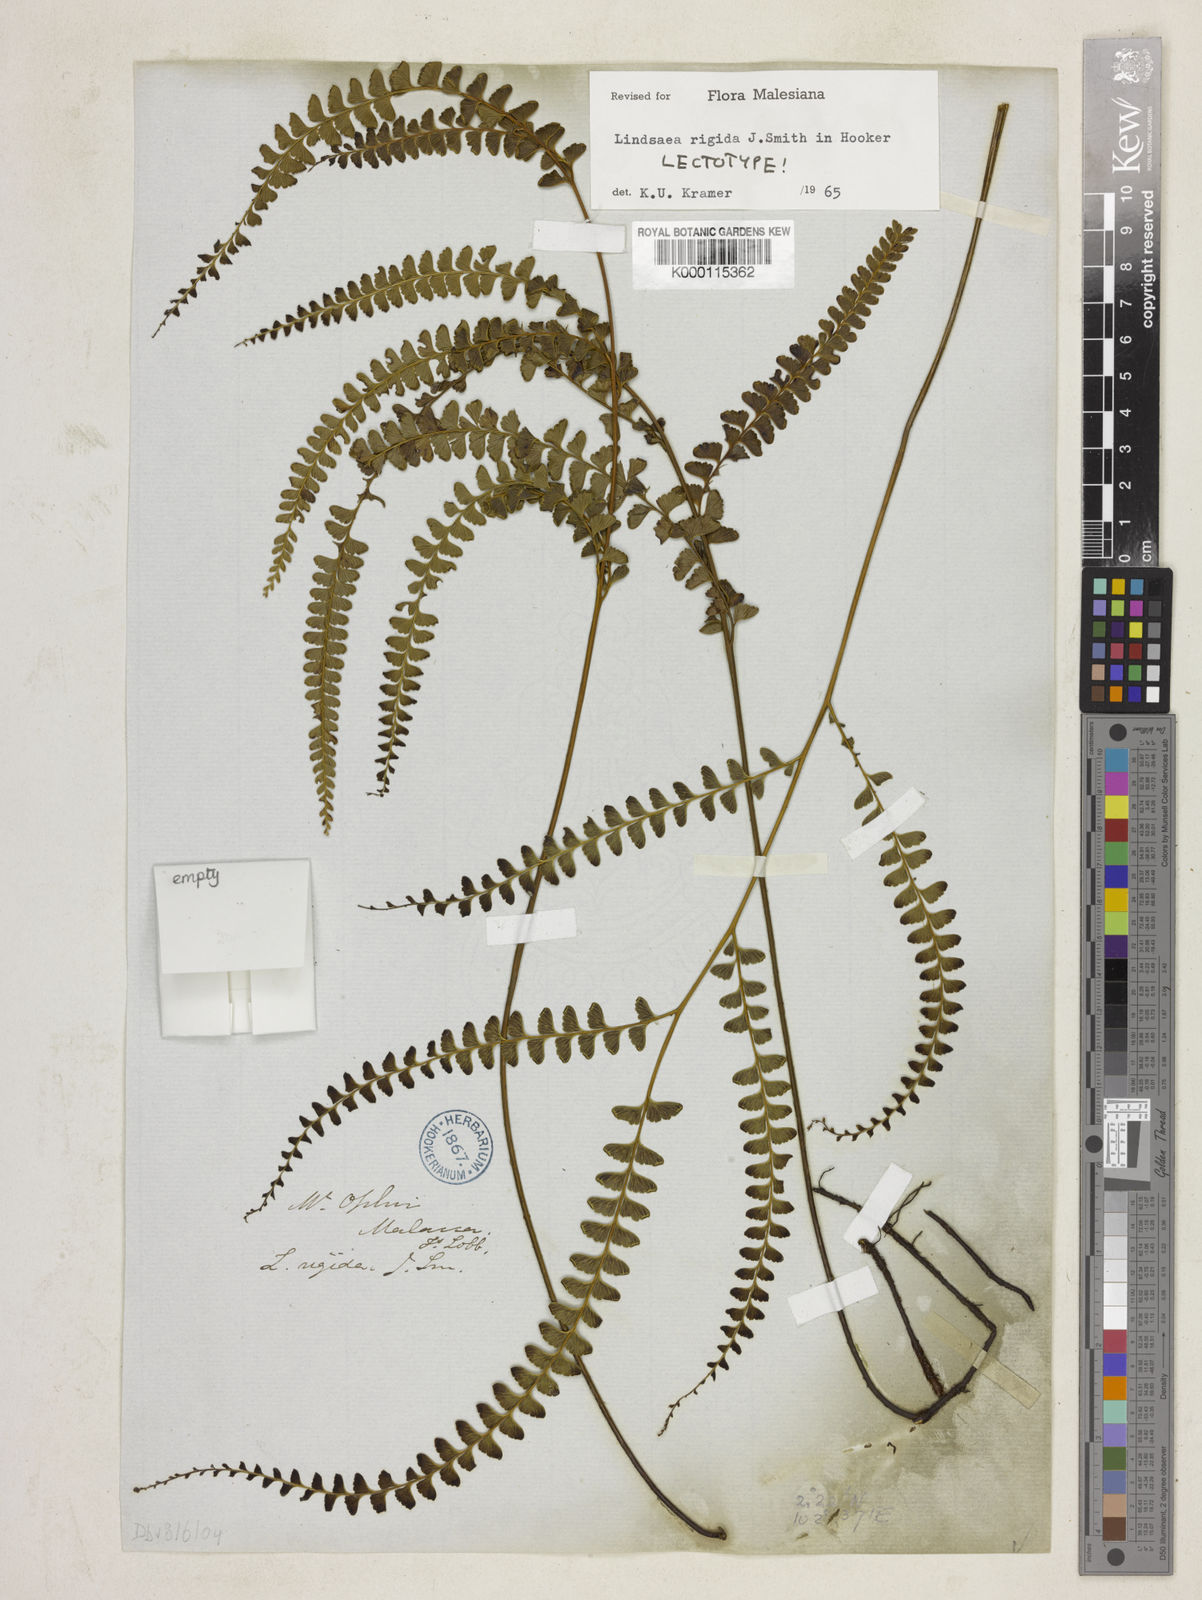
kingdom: Plantae
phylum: Tracheophyta
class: Polypodiopsida
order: Polypodiales
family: Lindsaeaceae
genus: Lindsaea
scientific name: Lindsaea rigida
